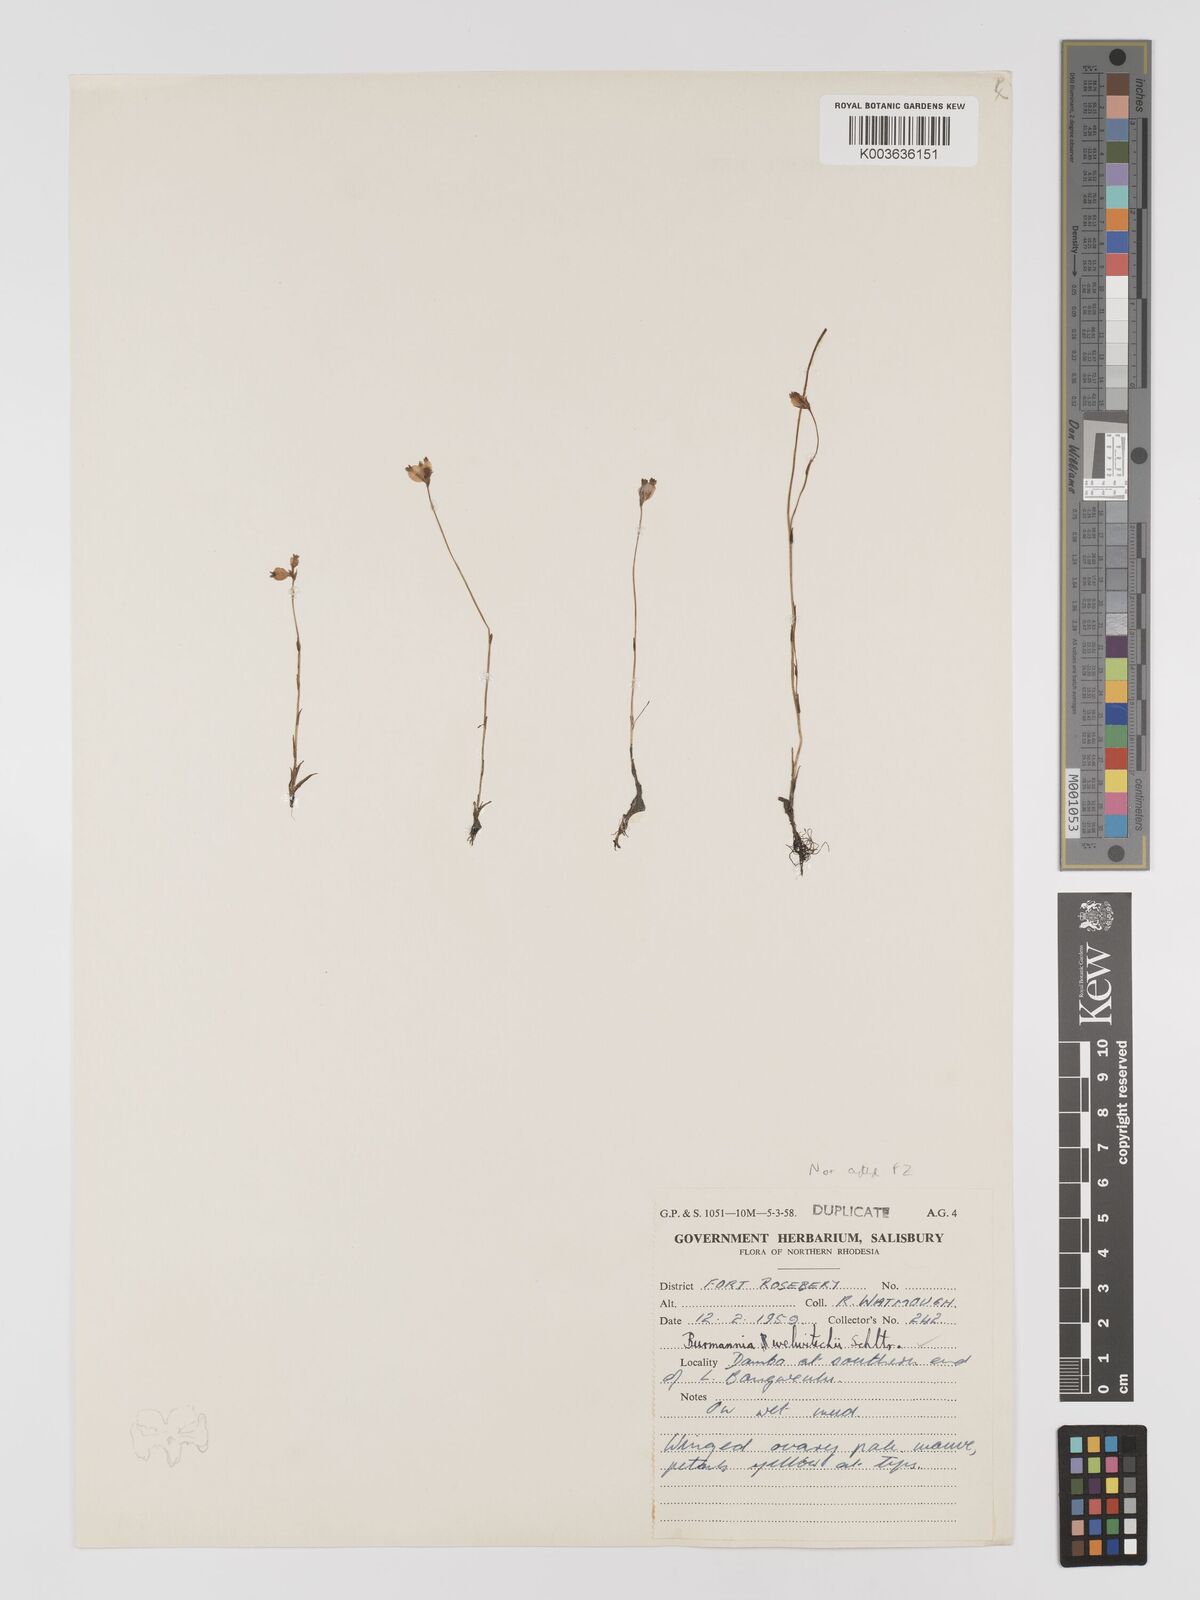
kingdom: Plantae
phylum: Tracheophyta
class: Liliopsida
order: Dioscoreales
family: Burmanniaceae
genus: Burmannia
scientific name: Burmannia madagascariensis
